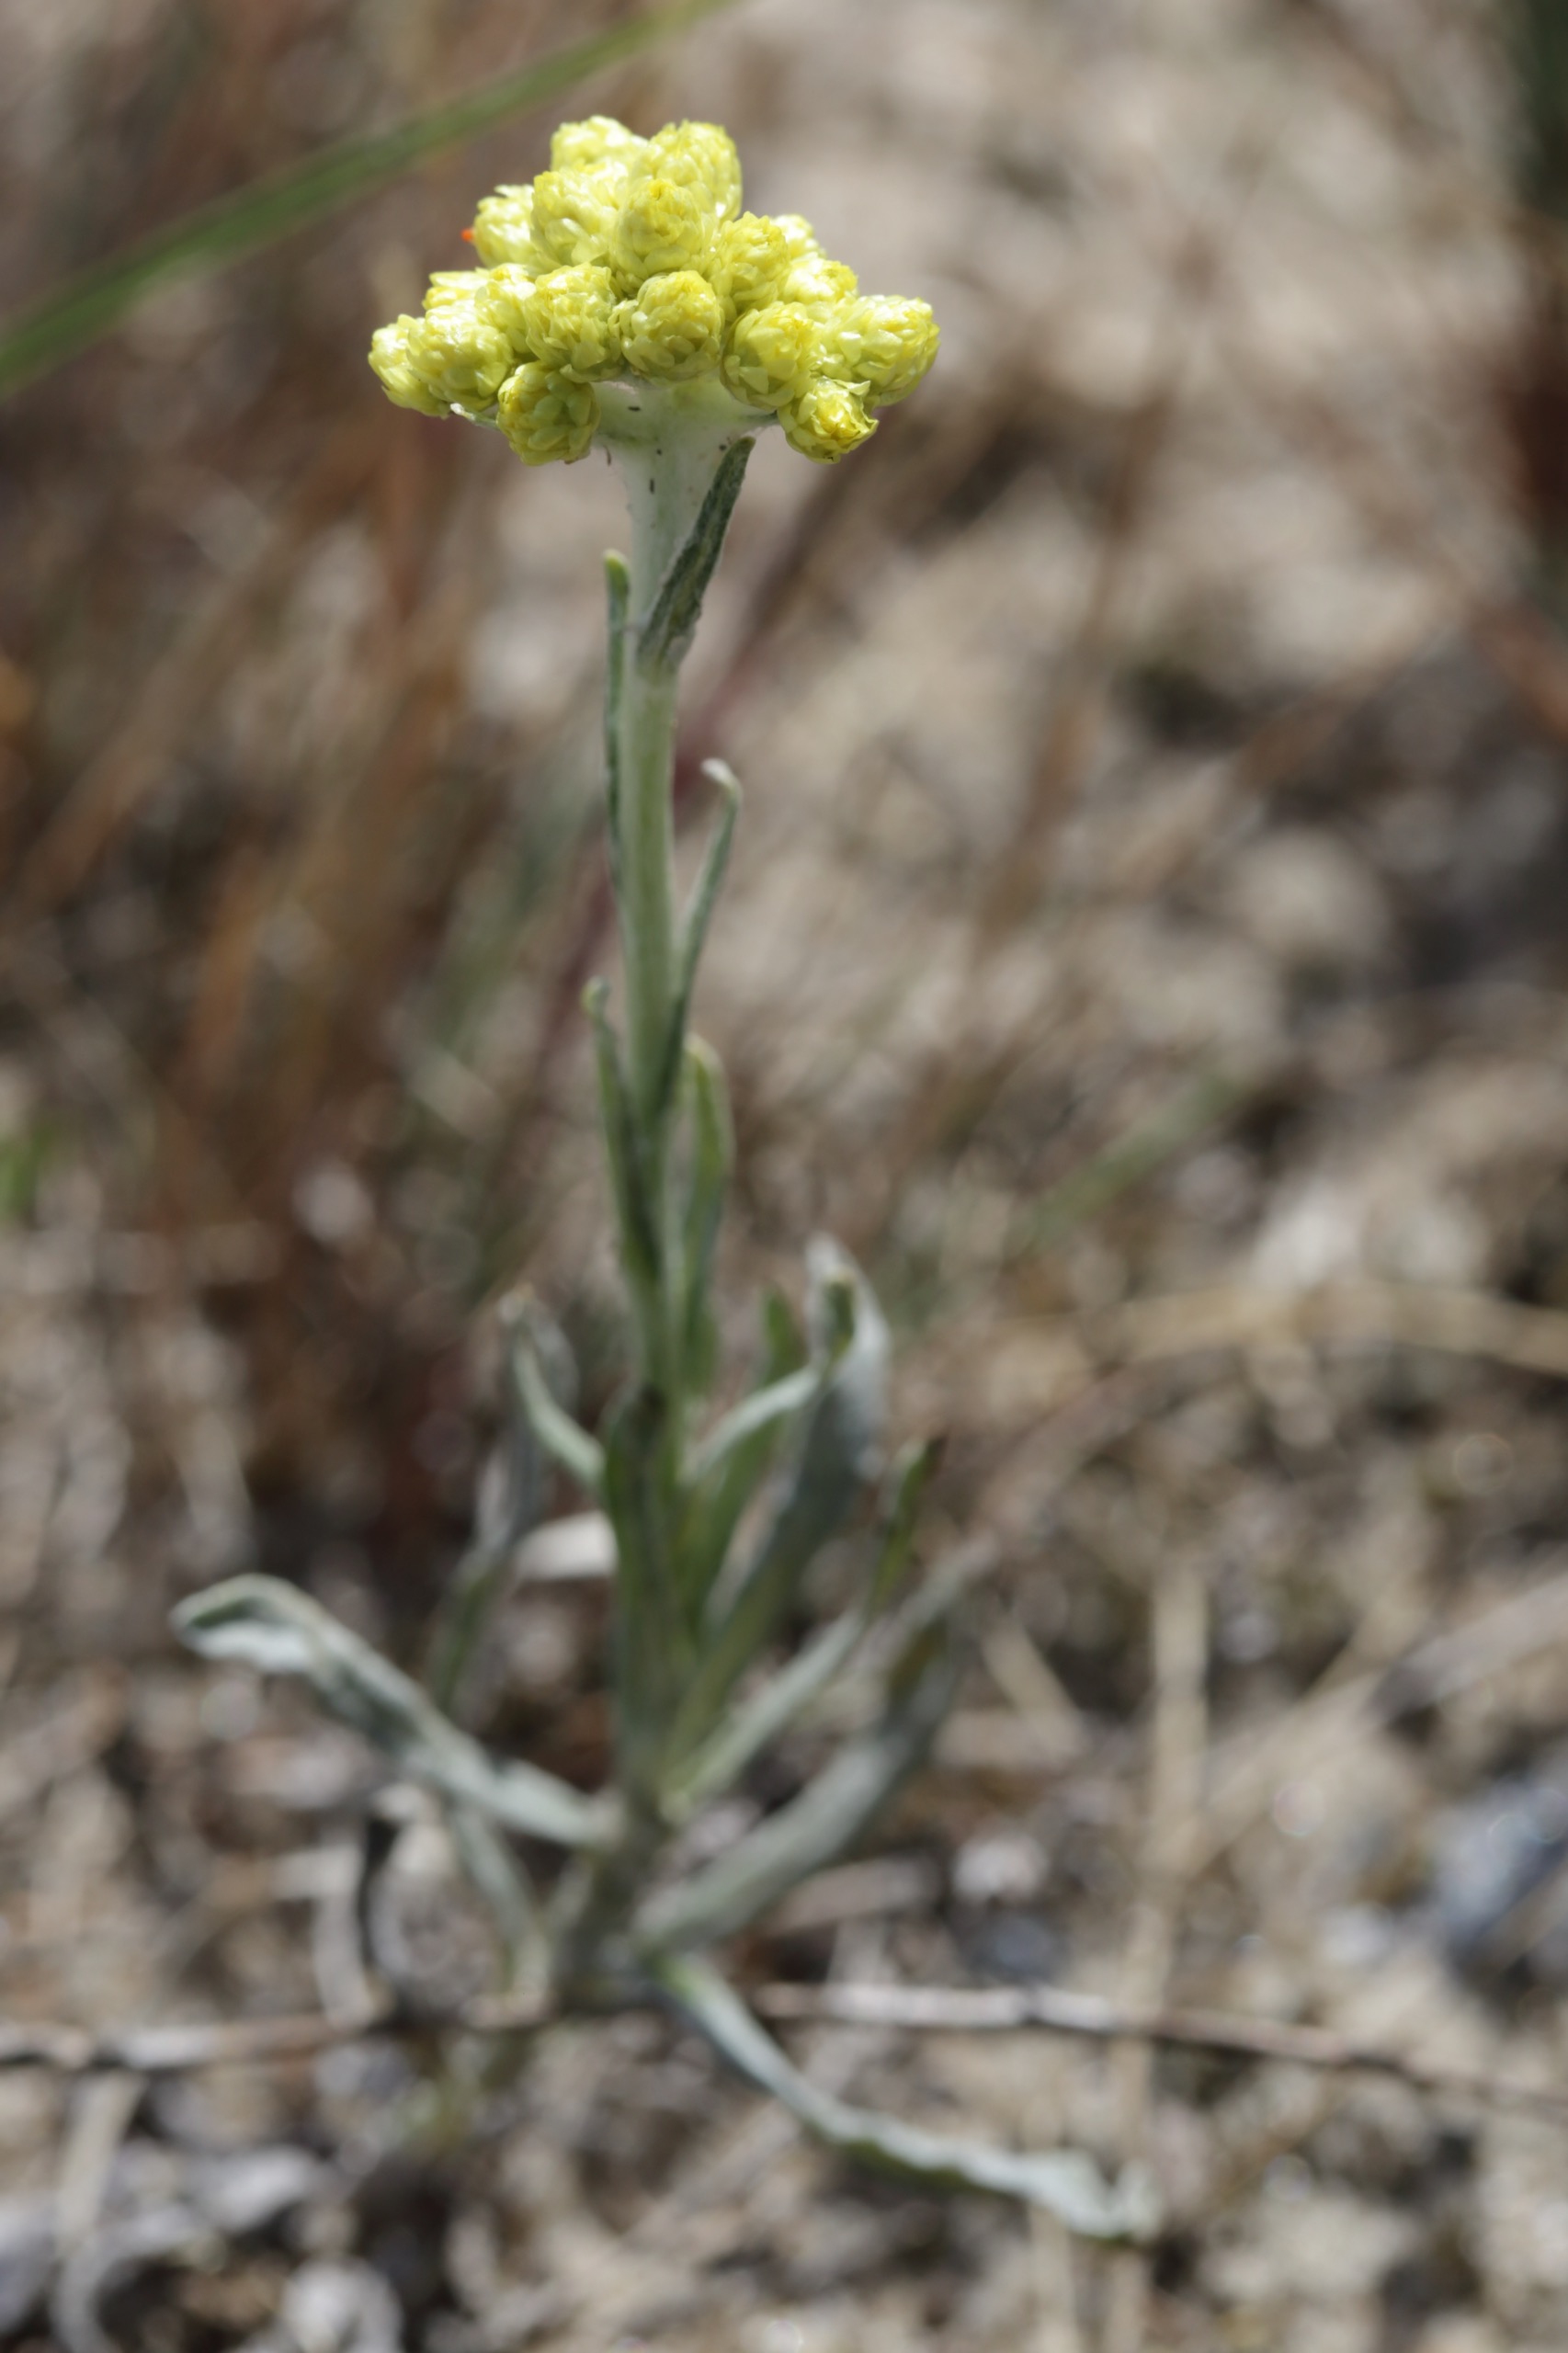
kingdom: Plantae
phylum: Tracheophyta
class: Magnoliopsida
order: Asterales
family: Asteraceae
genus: Helichrysum
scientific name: Helichrysum arenarium
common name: Gul evighedsblomst
